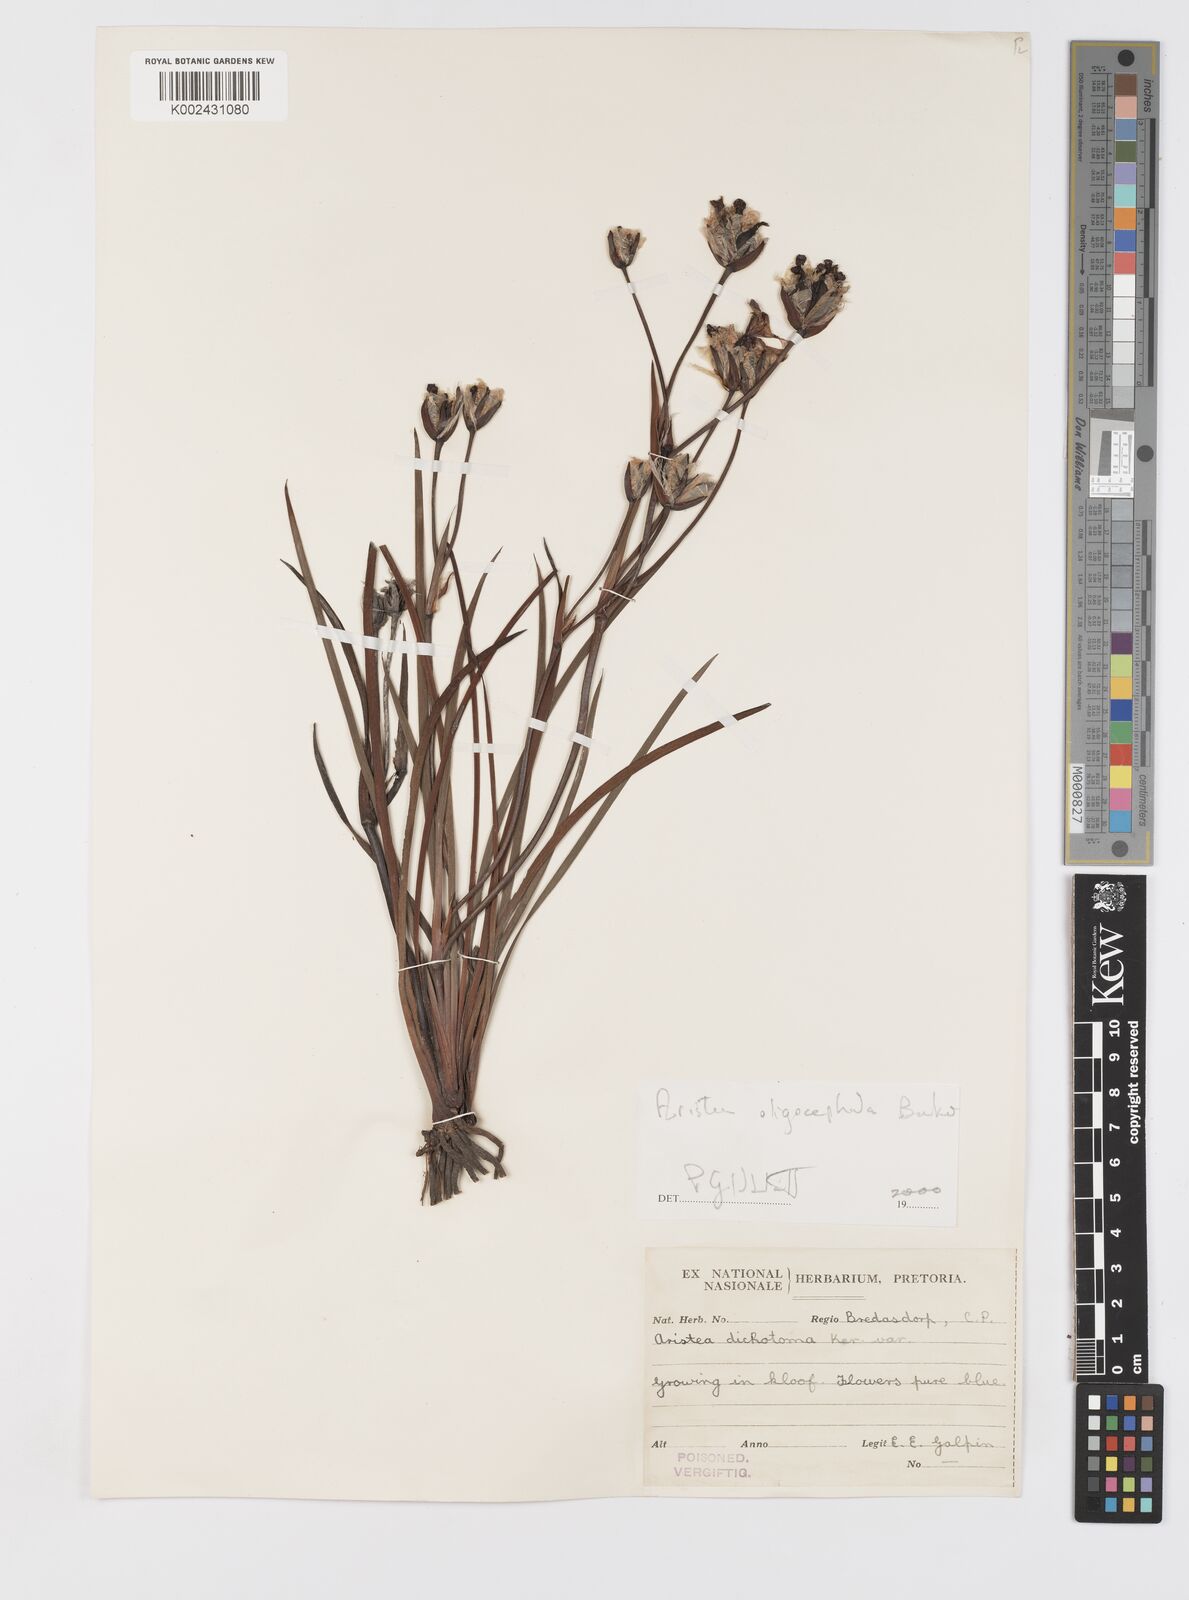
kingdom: Plantae
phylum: Tracheophyta
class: Liliopsida
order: Asparagales
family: Iridaceae
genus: Aristea
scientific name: Aristea oligocephala
